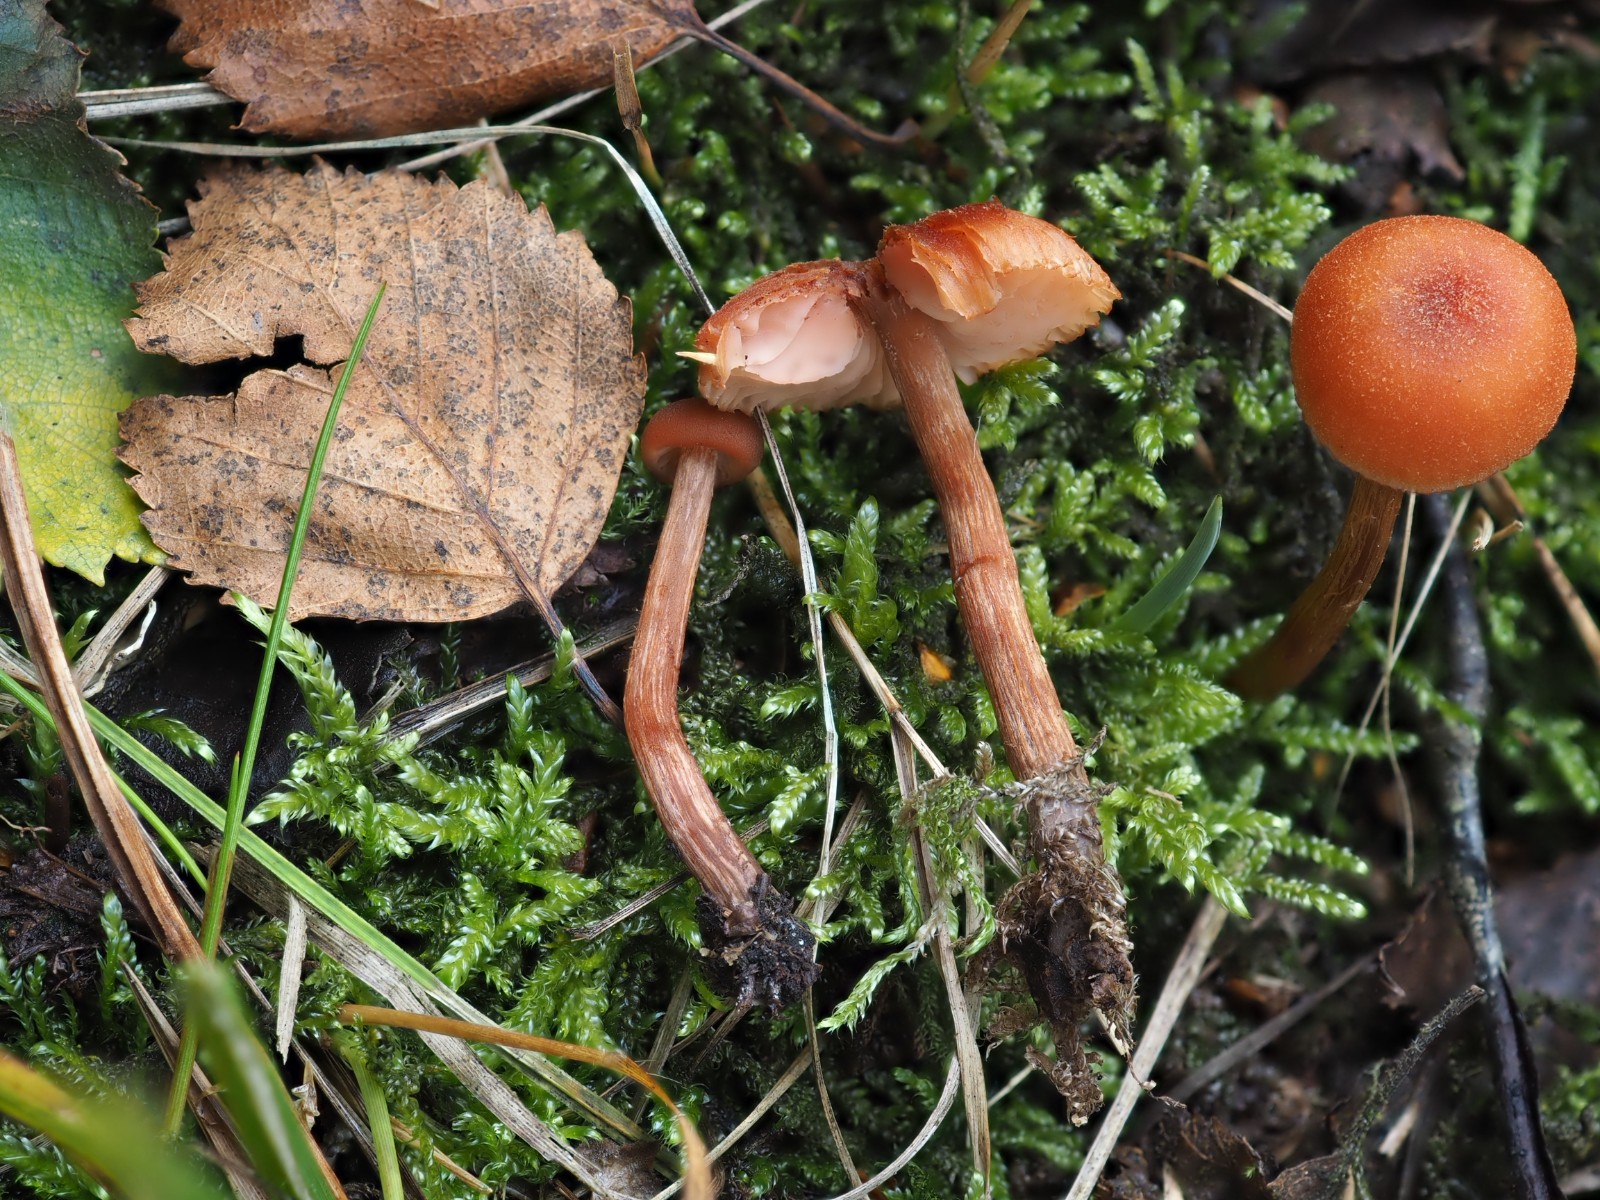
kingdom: Fungi
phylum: Basidiomycota
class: Agaricomycetes
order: Agaricales
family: Hydnangiaceae
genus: Laccaria
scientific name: Laccaria proxima
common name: stor ametysthat
